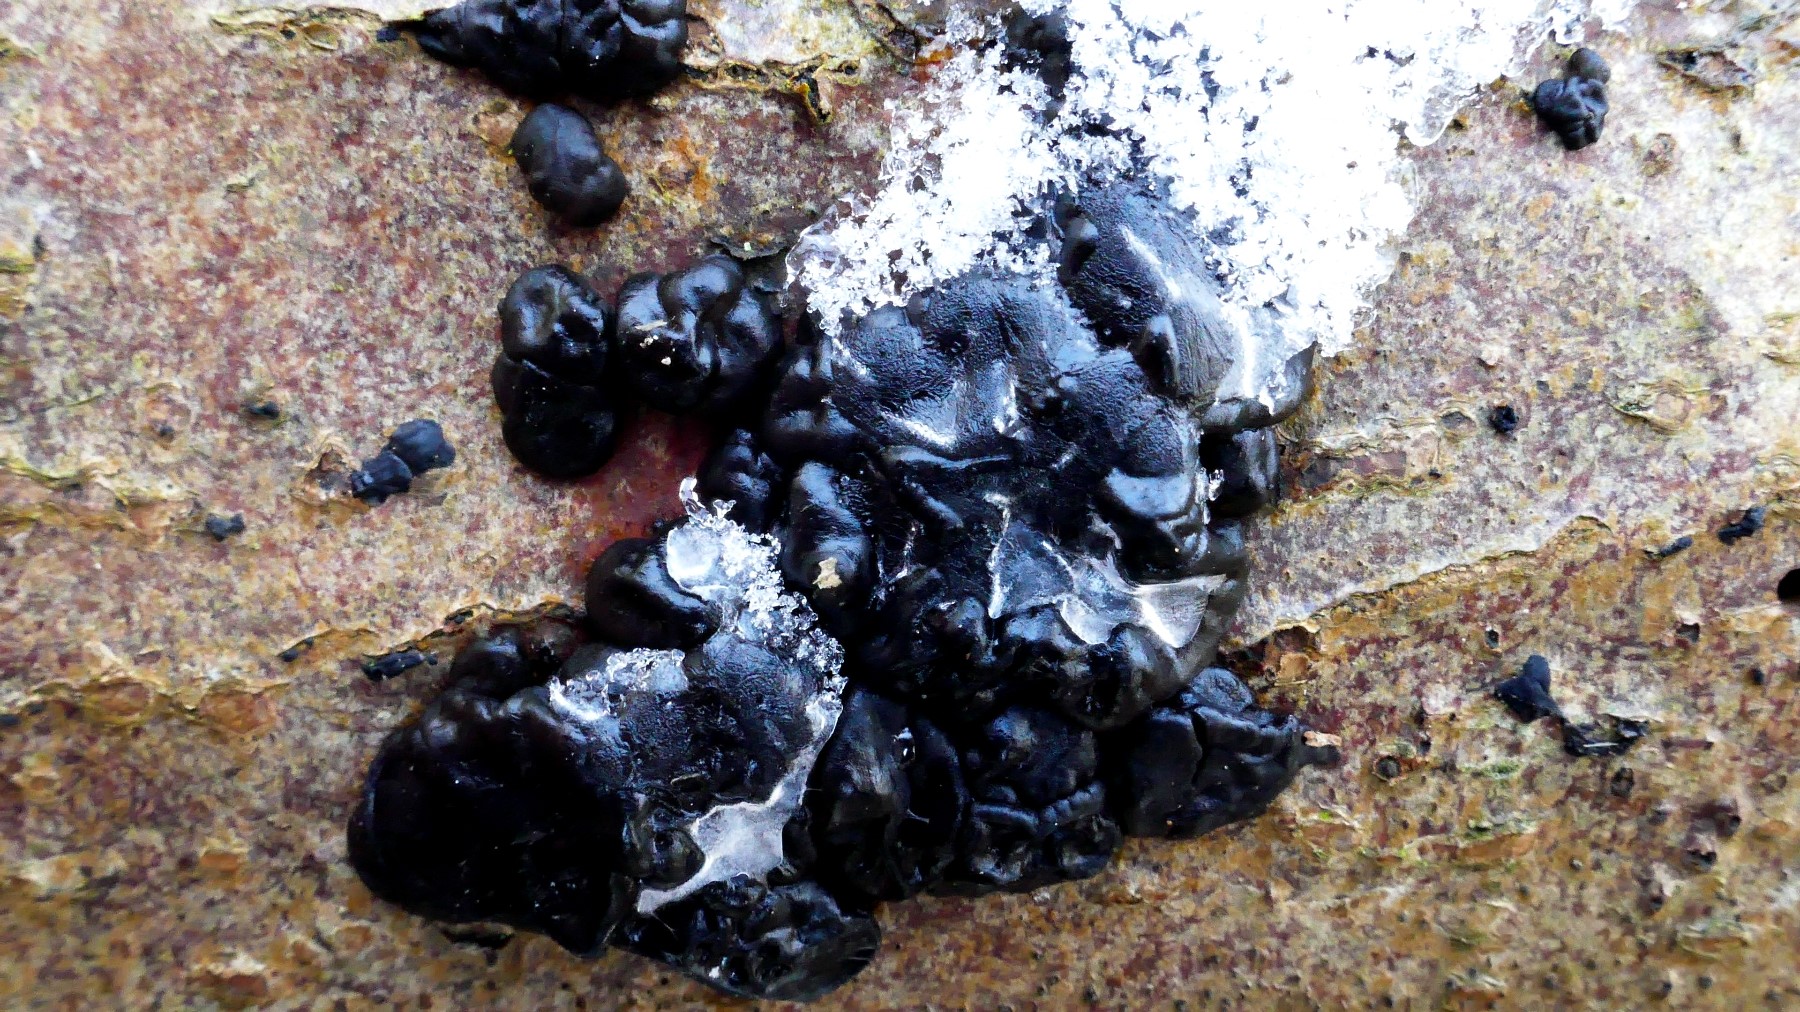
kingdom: Fungi
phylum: Basidiomycota
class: Agaricomycetes
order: Auriculariales
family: Auriculariaceae
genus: Exidia
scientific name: Exidia nigricans
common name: almindelig bævretop
